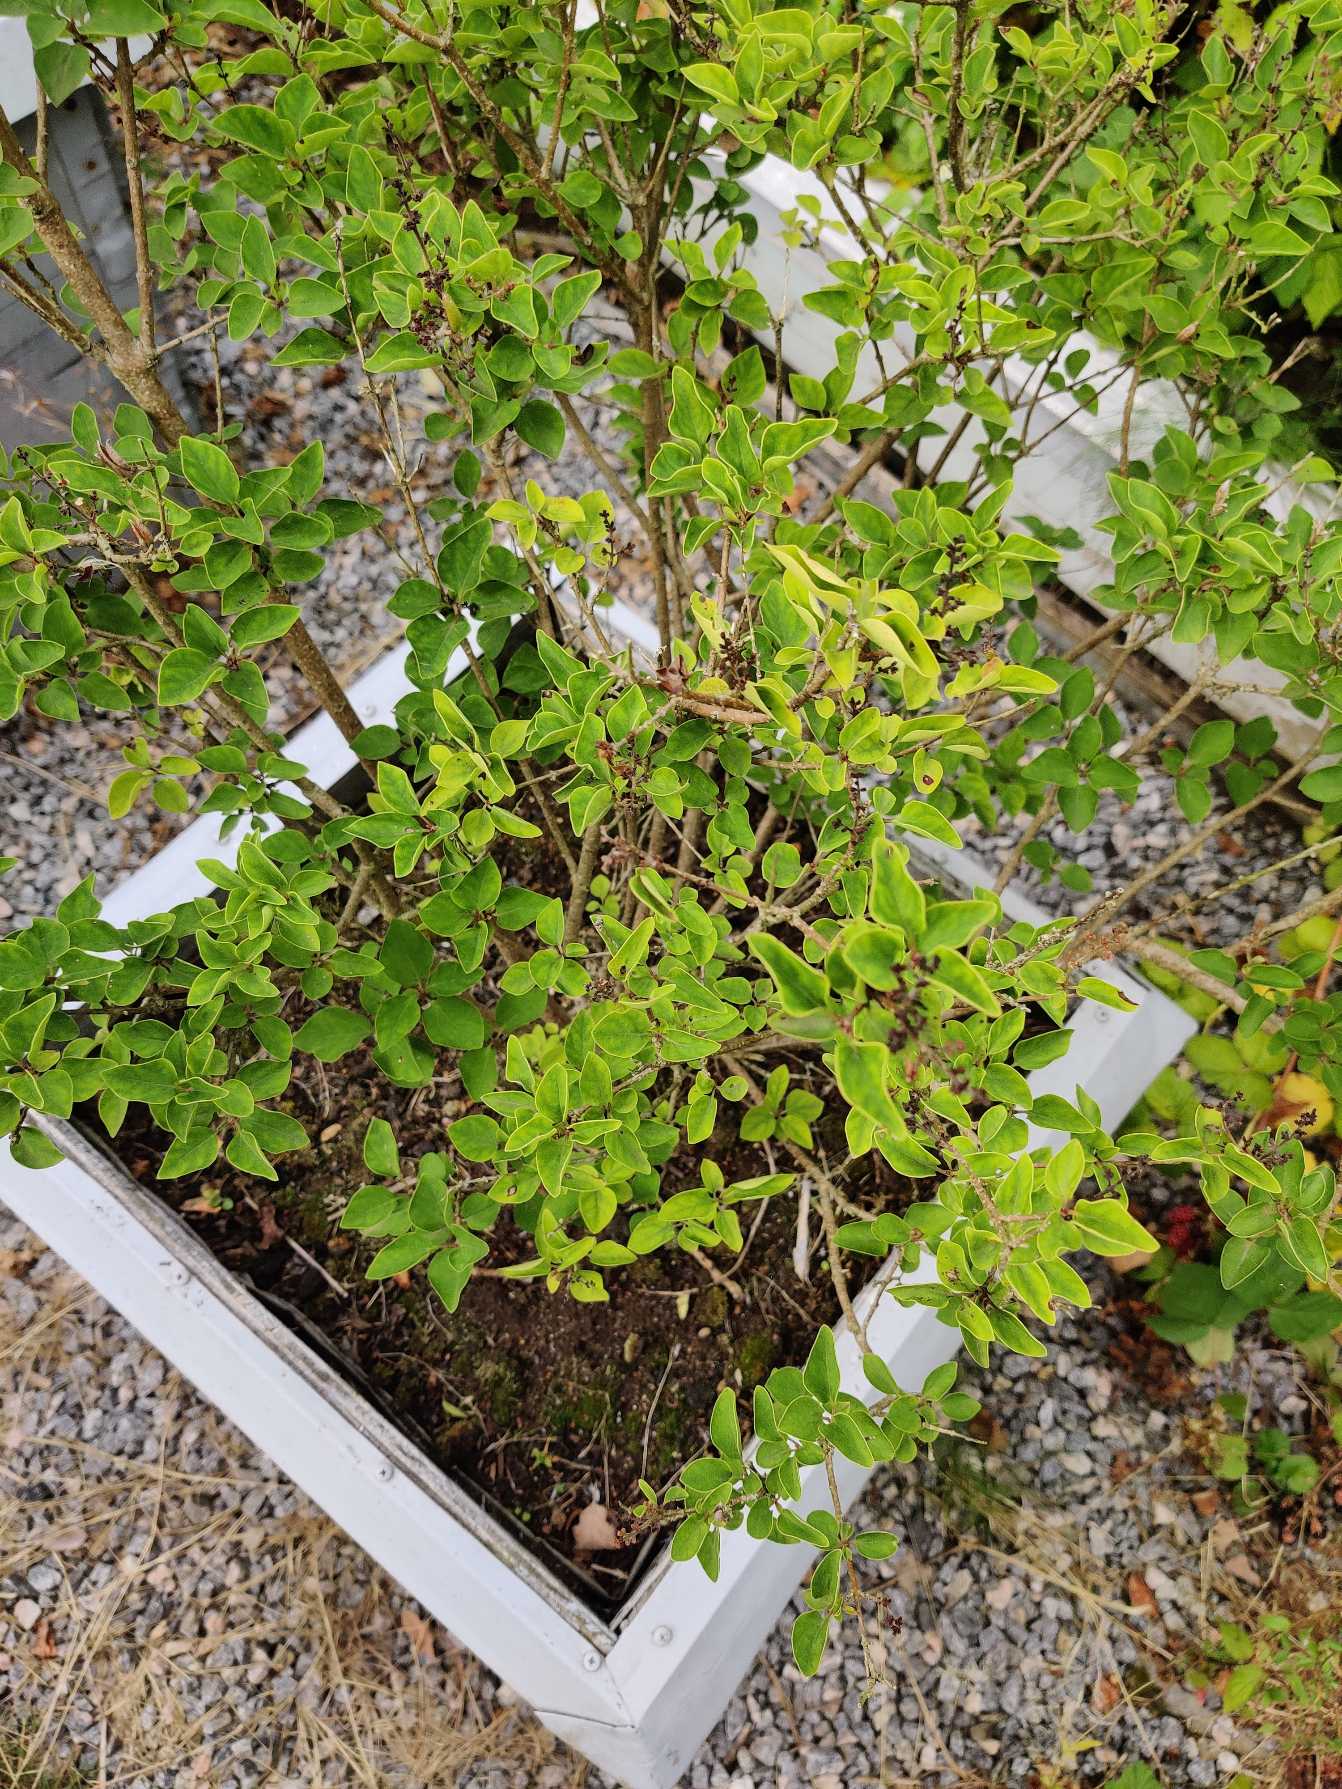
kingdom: Plantae
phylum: Tracheophyta
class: Magnoliopsida
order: Lamiales
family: Oleaceae
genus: Syringa
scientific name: Syringa vulgaris
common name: Syren
